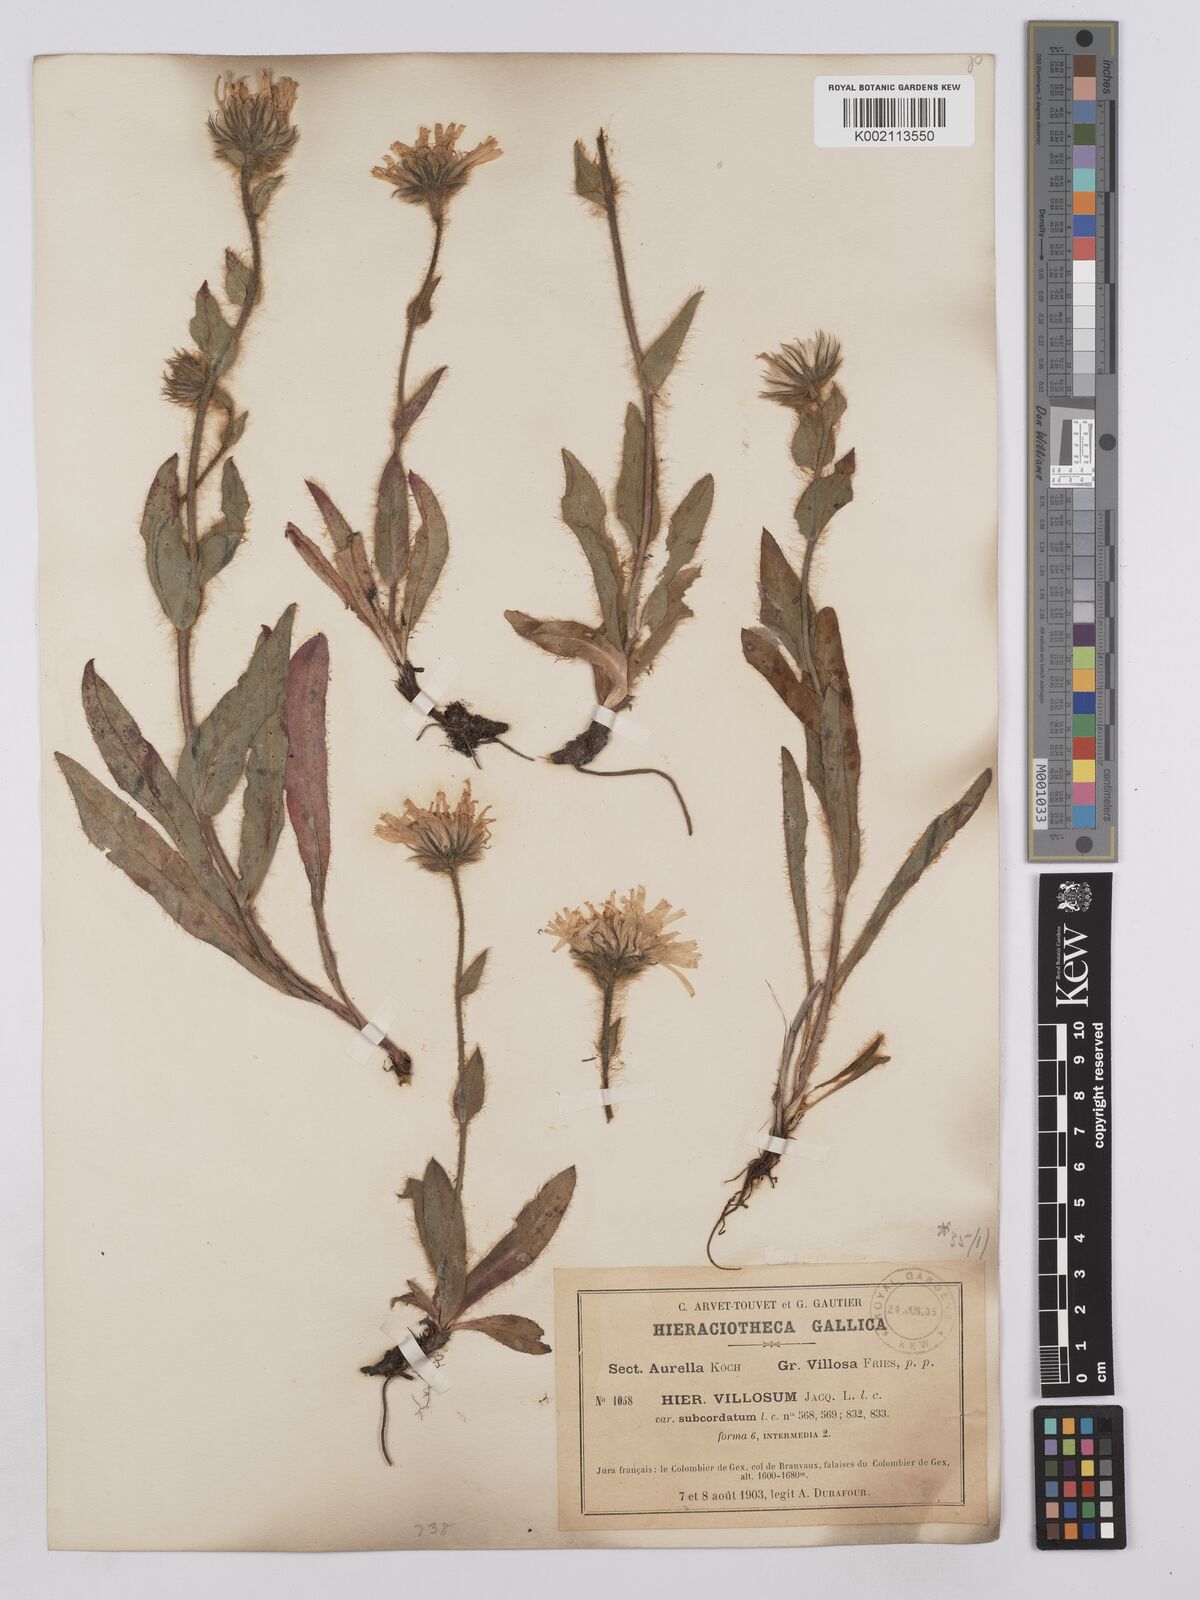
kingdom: Plantae
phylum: Tracheophyta
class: Magnoliopsida
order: Asterales
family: Asteraceae
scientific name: Asteraceae
